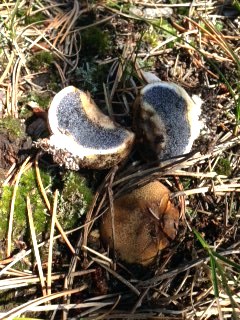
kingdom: Fungi
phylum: Basidiomycota
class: Agaricomycetes
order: Boletales
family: Sclerodermataceae
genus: Scleroderma
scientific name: Scleroderma citrinum
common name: almindelig bruskbold
